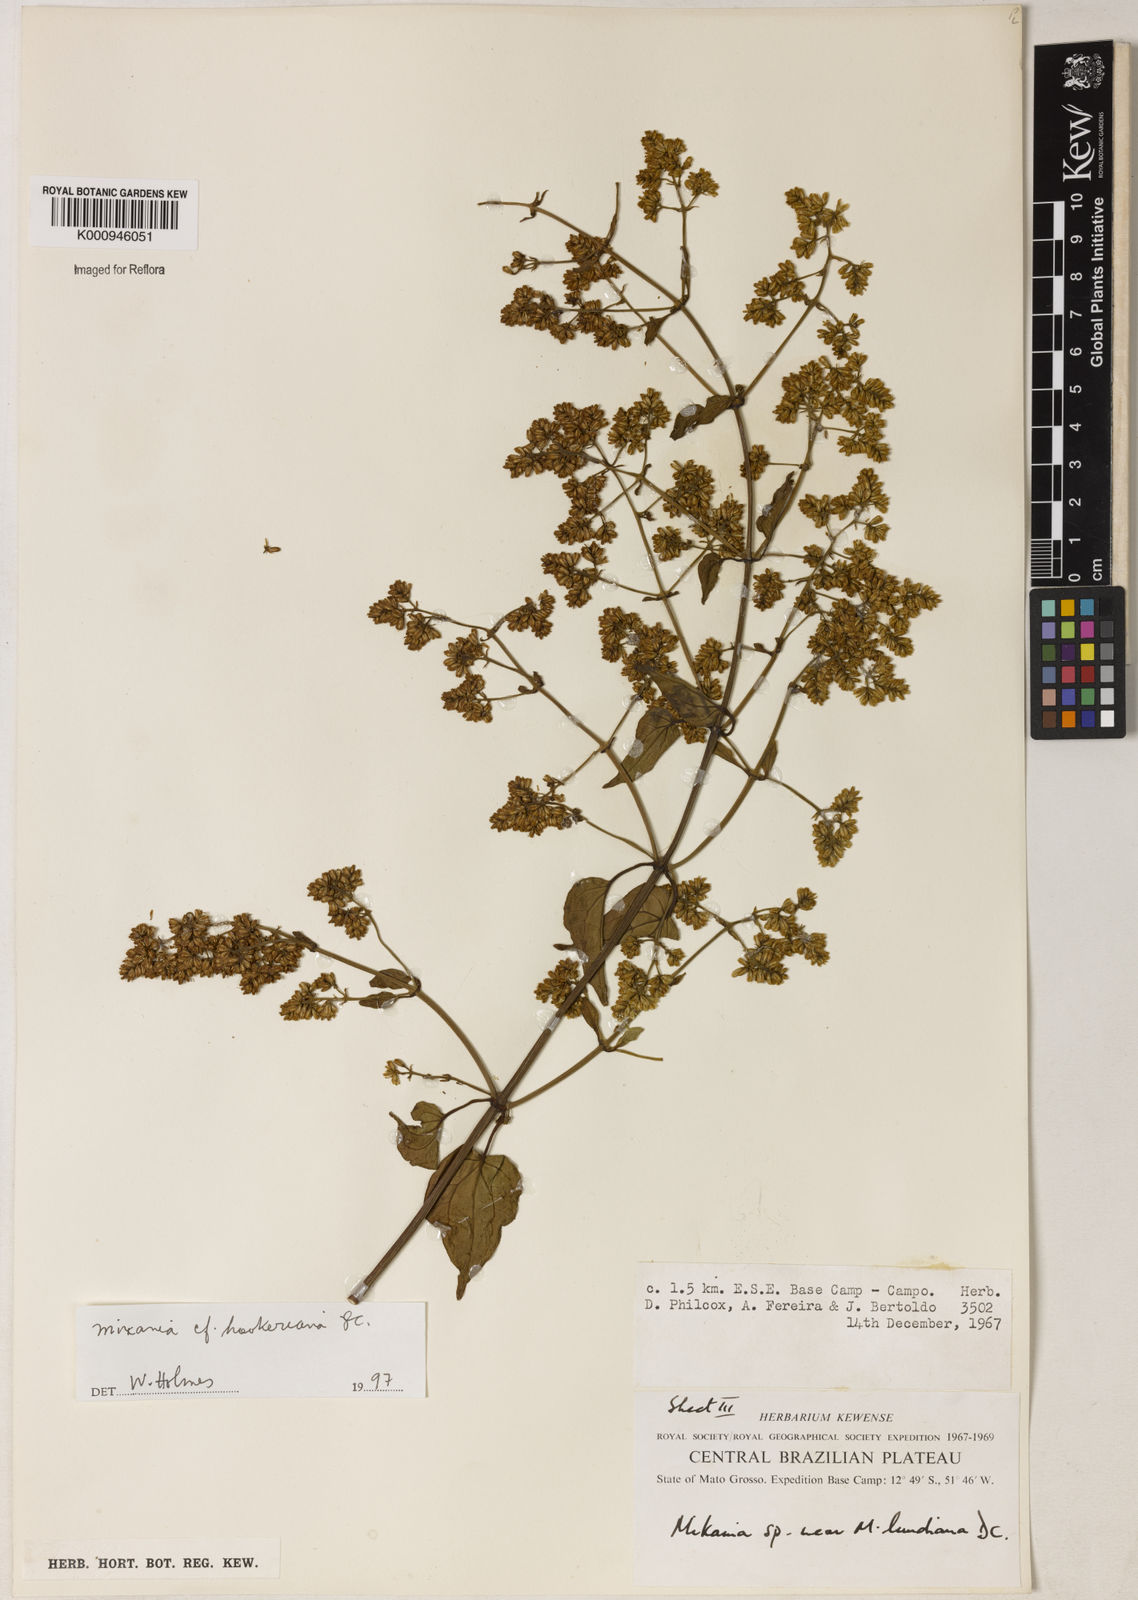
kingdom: Plantae
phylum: Tracheophyta
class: Magnoliopsida
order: Asterales
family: Asteraceae
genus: Mikania
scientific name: Mikania lundiana
